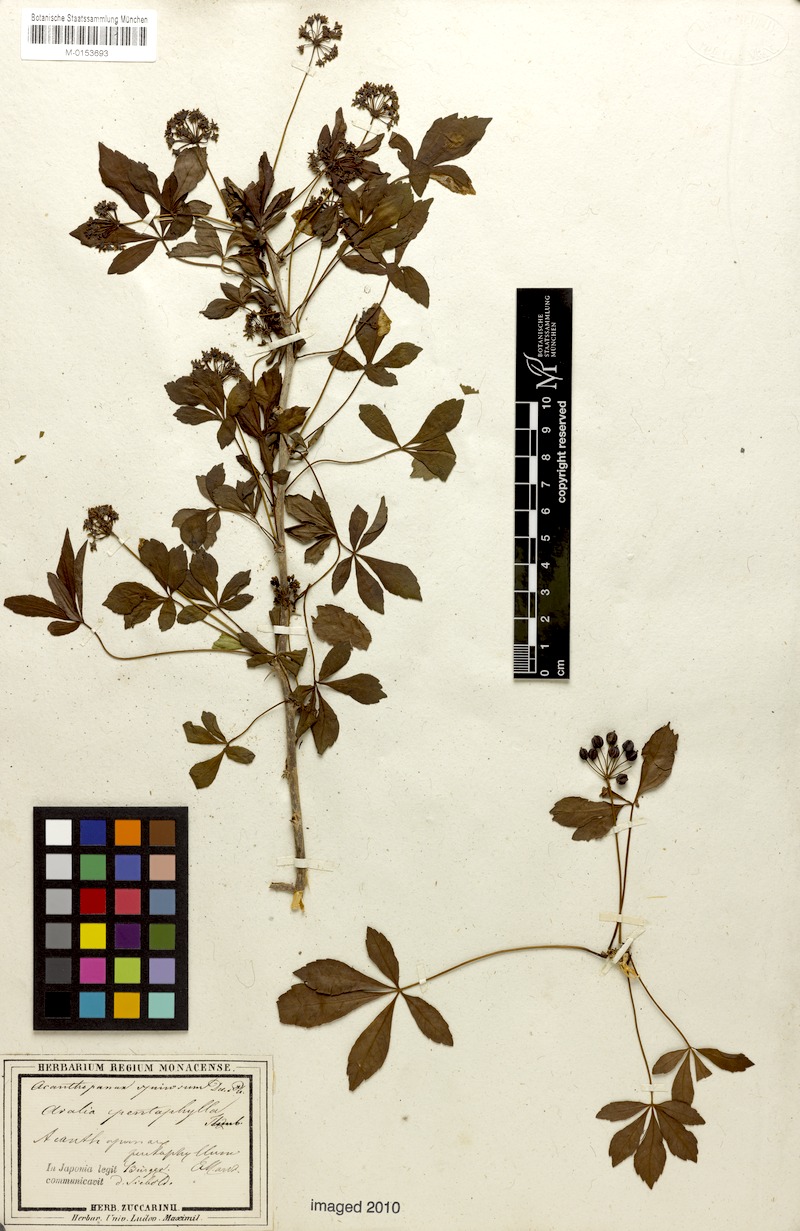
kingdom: Plantae
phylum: Tracheophyta
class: Magnoliopsida
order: Apiales
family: Araliaceae
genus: Eleutherococcus
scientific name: Eleutherococcus spinosus
